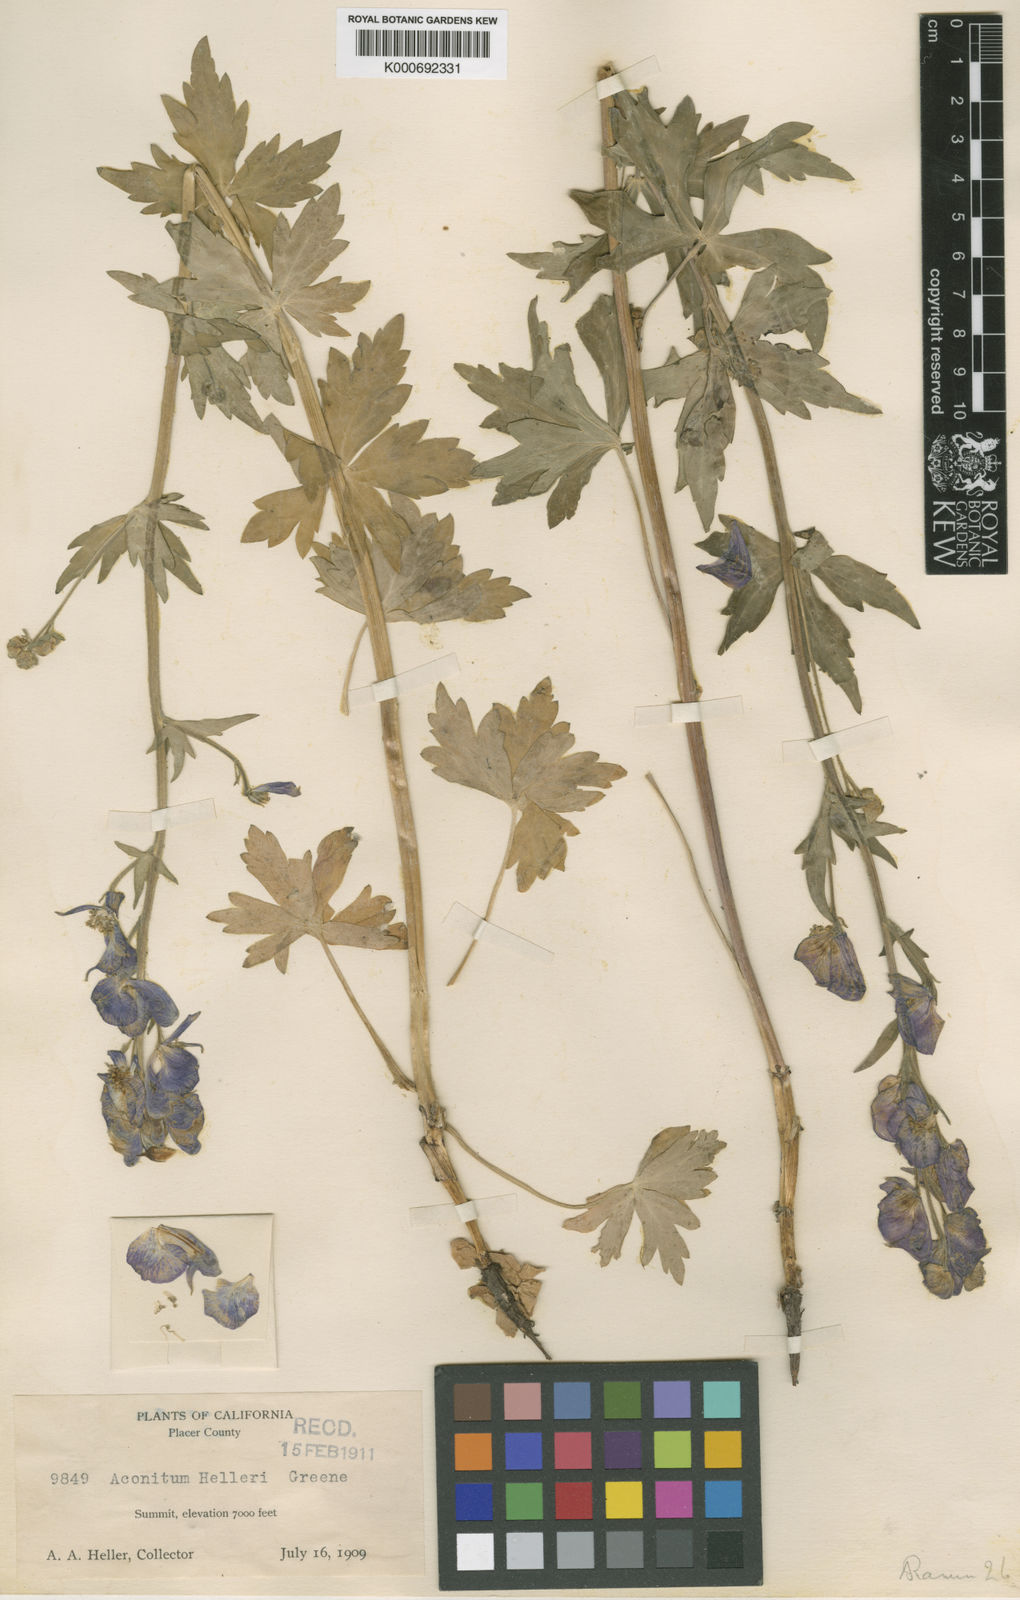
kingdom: Plantae
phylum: Tracheophyta
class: Magnoliopsida
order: Ranunculales
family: Ranunculaceae
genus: Aconitum
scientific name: Aconitum helleri
